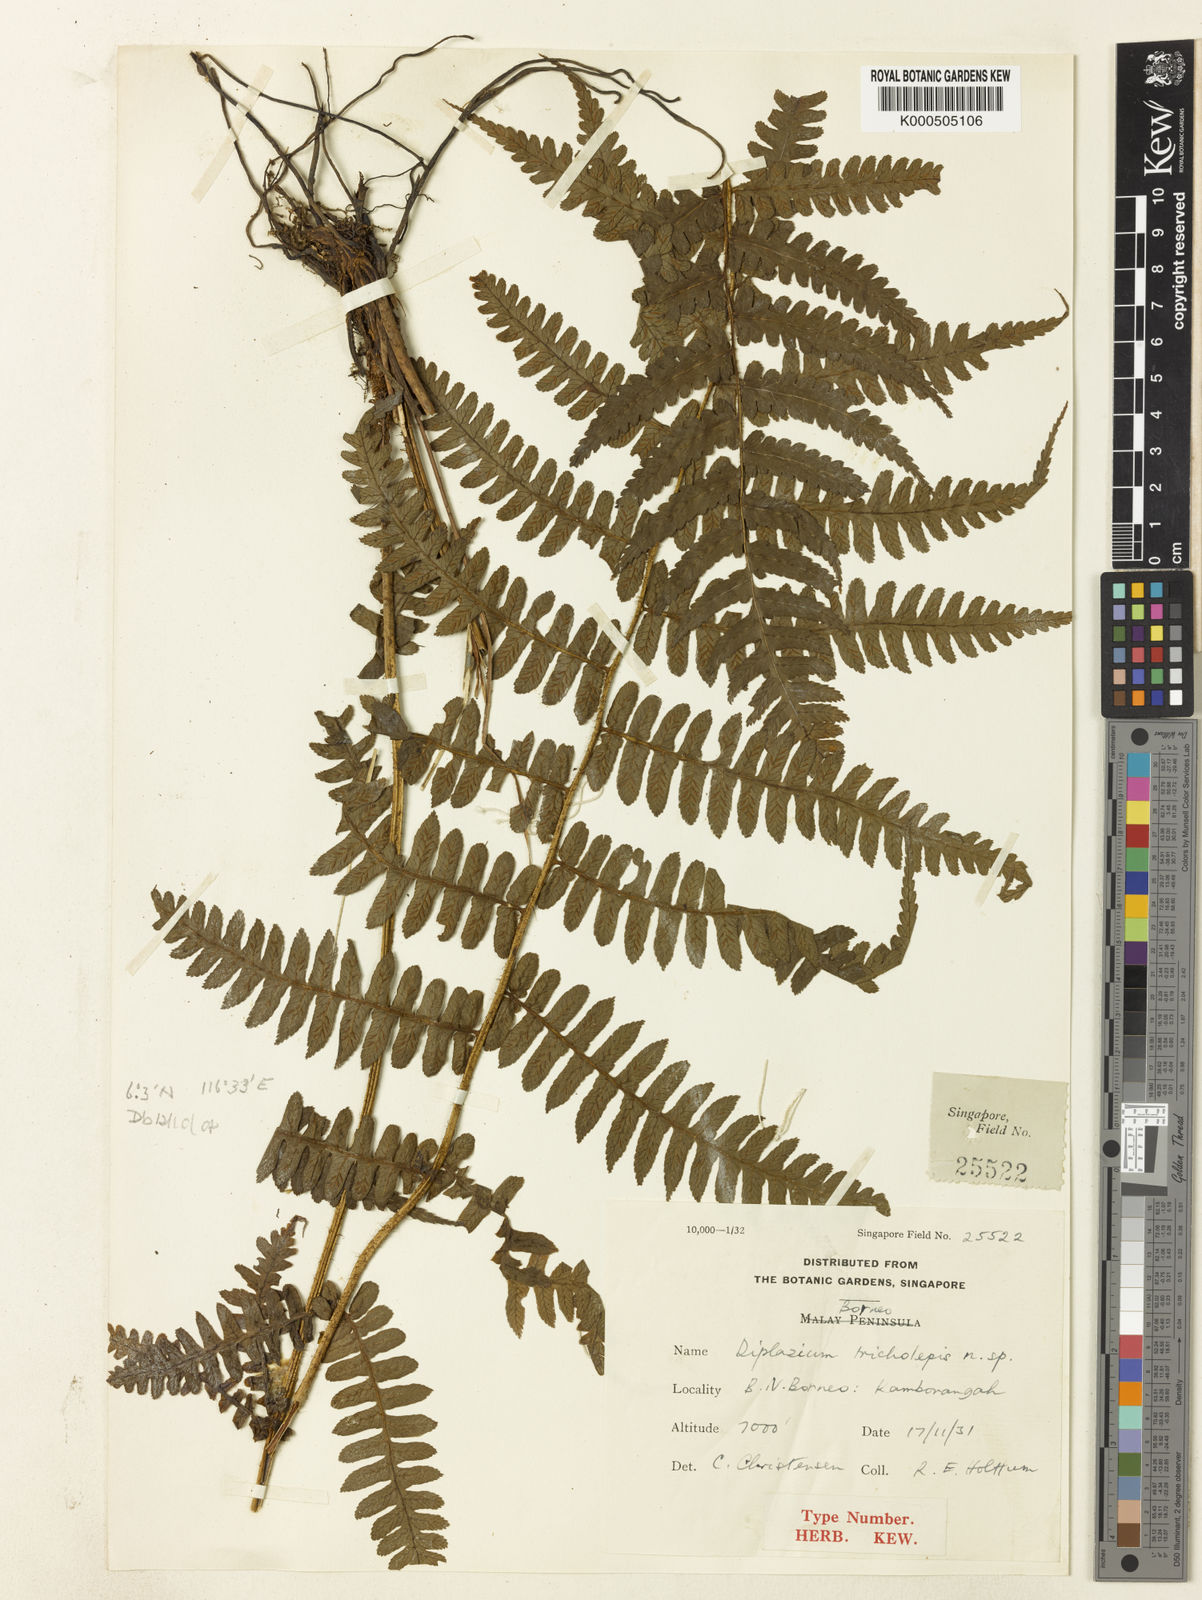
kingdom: Plantae
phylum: Tracheophyta
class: Polypodiopsida
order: Polypodiales
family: Athyriaceae
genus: Diplazium
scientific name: Diplazium tricholepis
